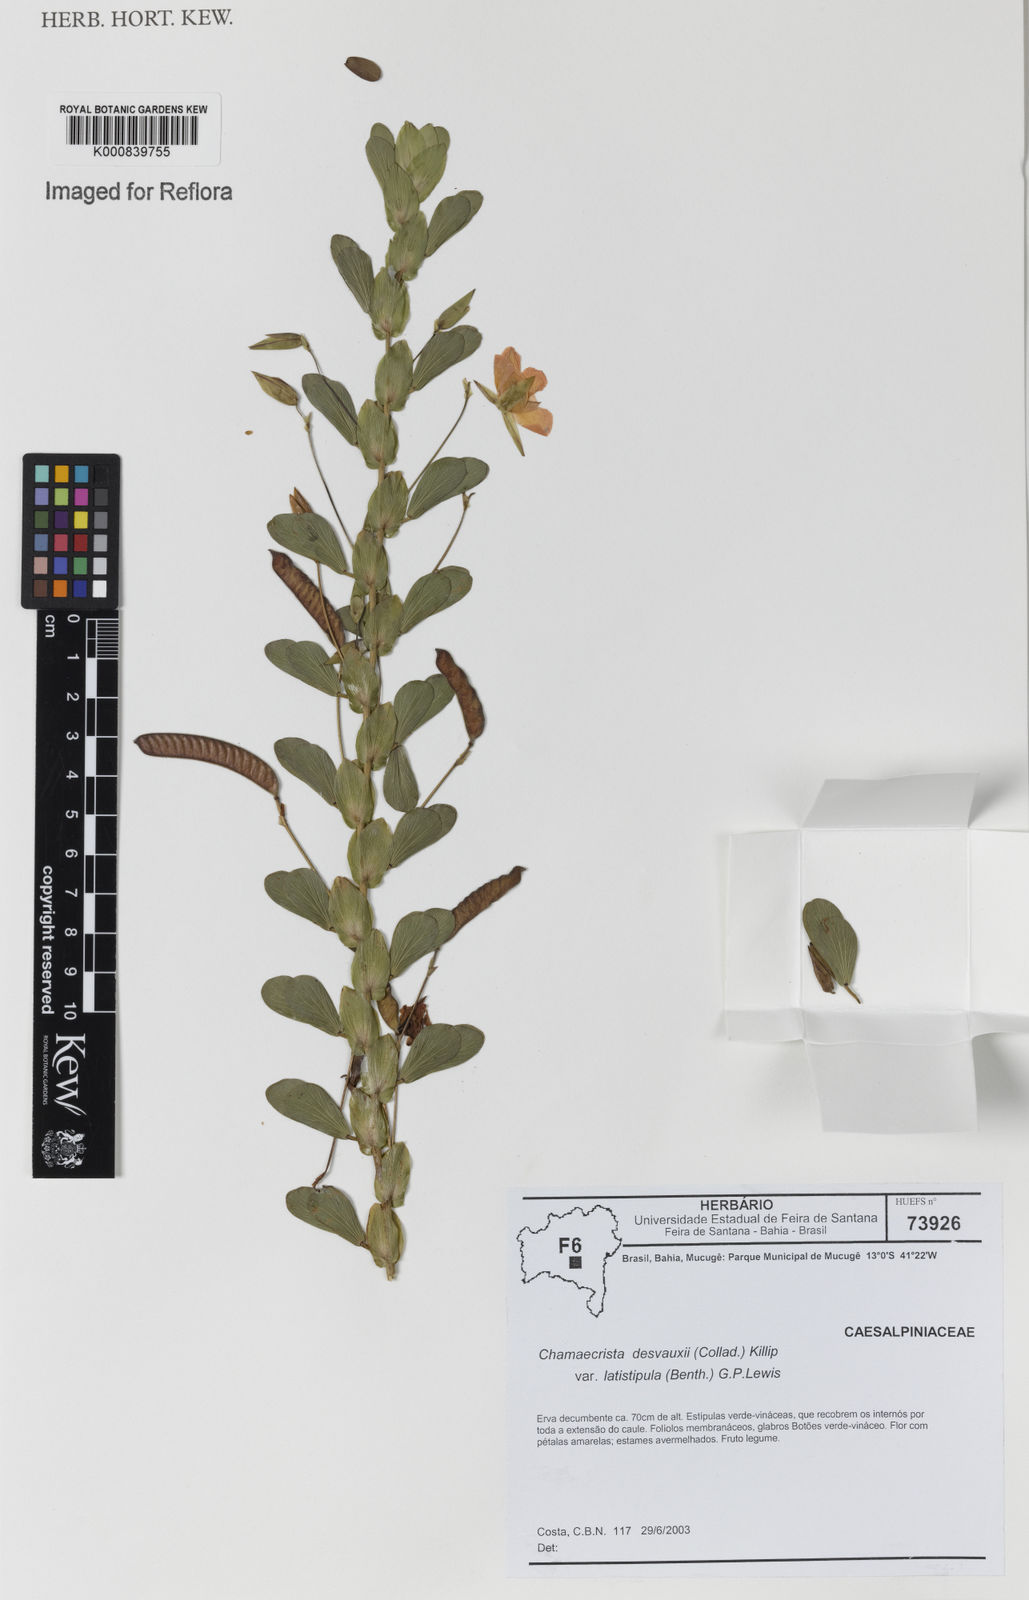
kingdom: Plantae
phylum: Tracheophyta
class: Magnoliopsida
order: Fabales
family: Fabaceae
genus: Chamaecrista
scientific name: Chamaecrista desvauxii
